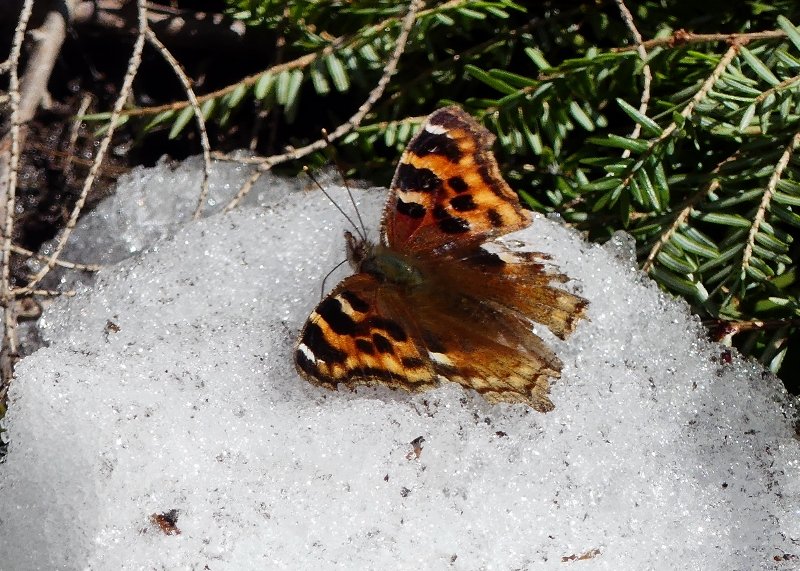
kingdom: Animalia
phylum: Arthropoda
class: Insecta
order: Lepidoptera
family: Nymphalidae
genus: Polygonia
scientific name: Polygonia vaualbum
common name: Compton Tortoiseshell
